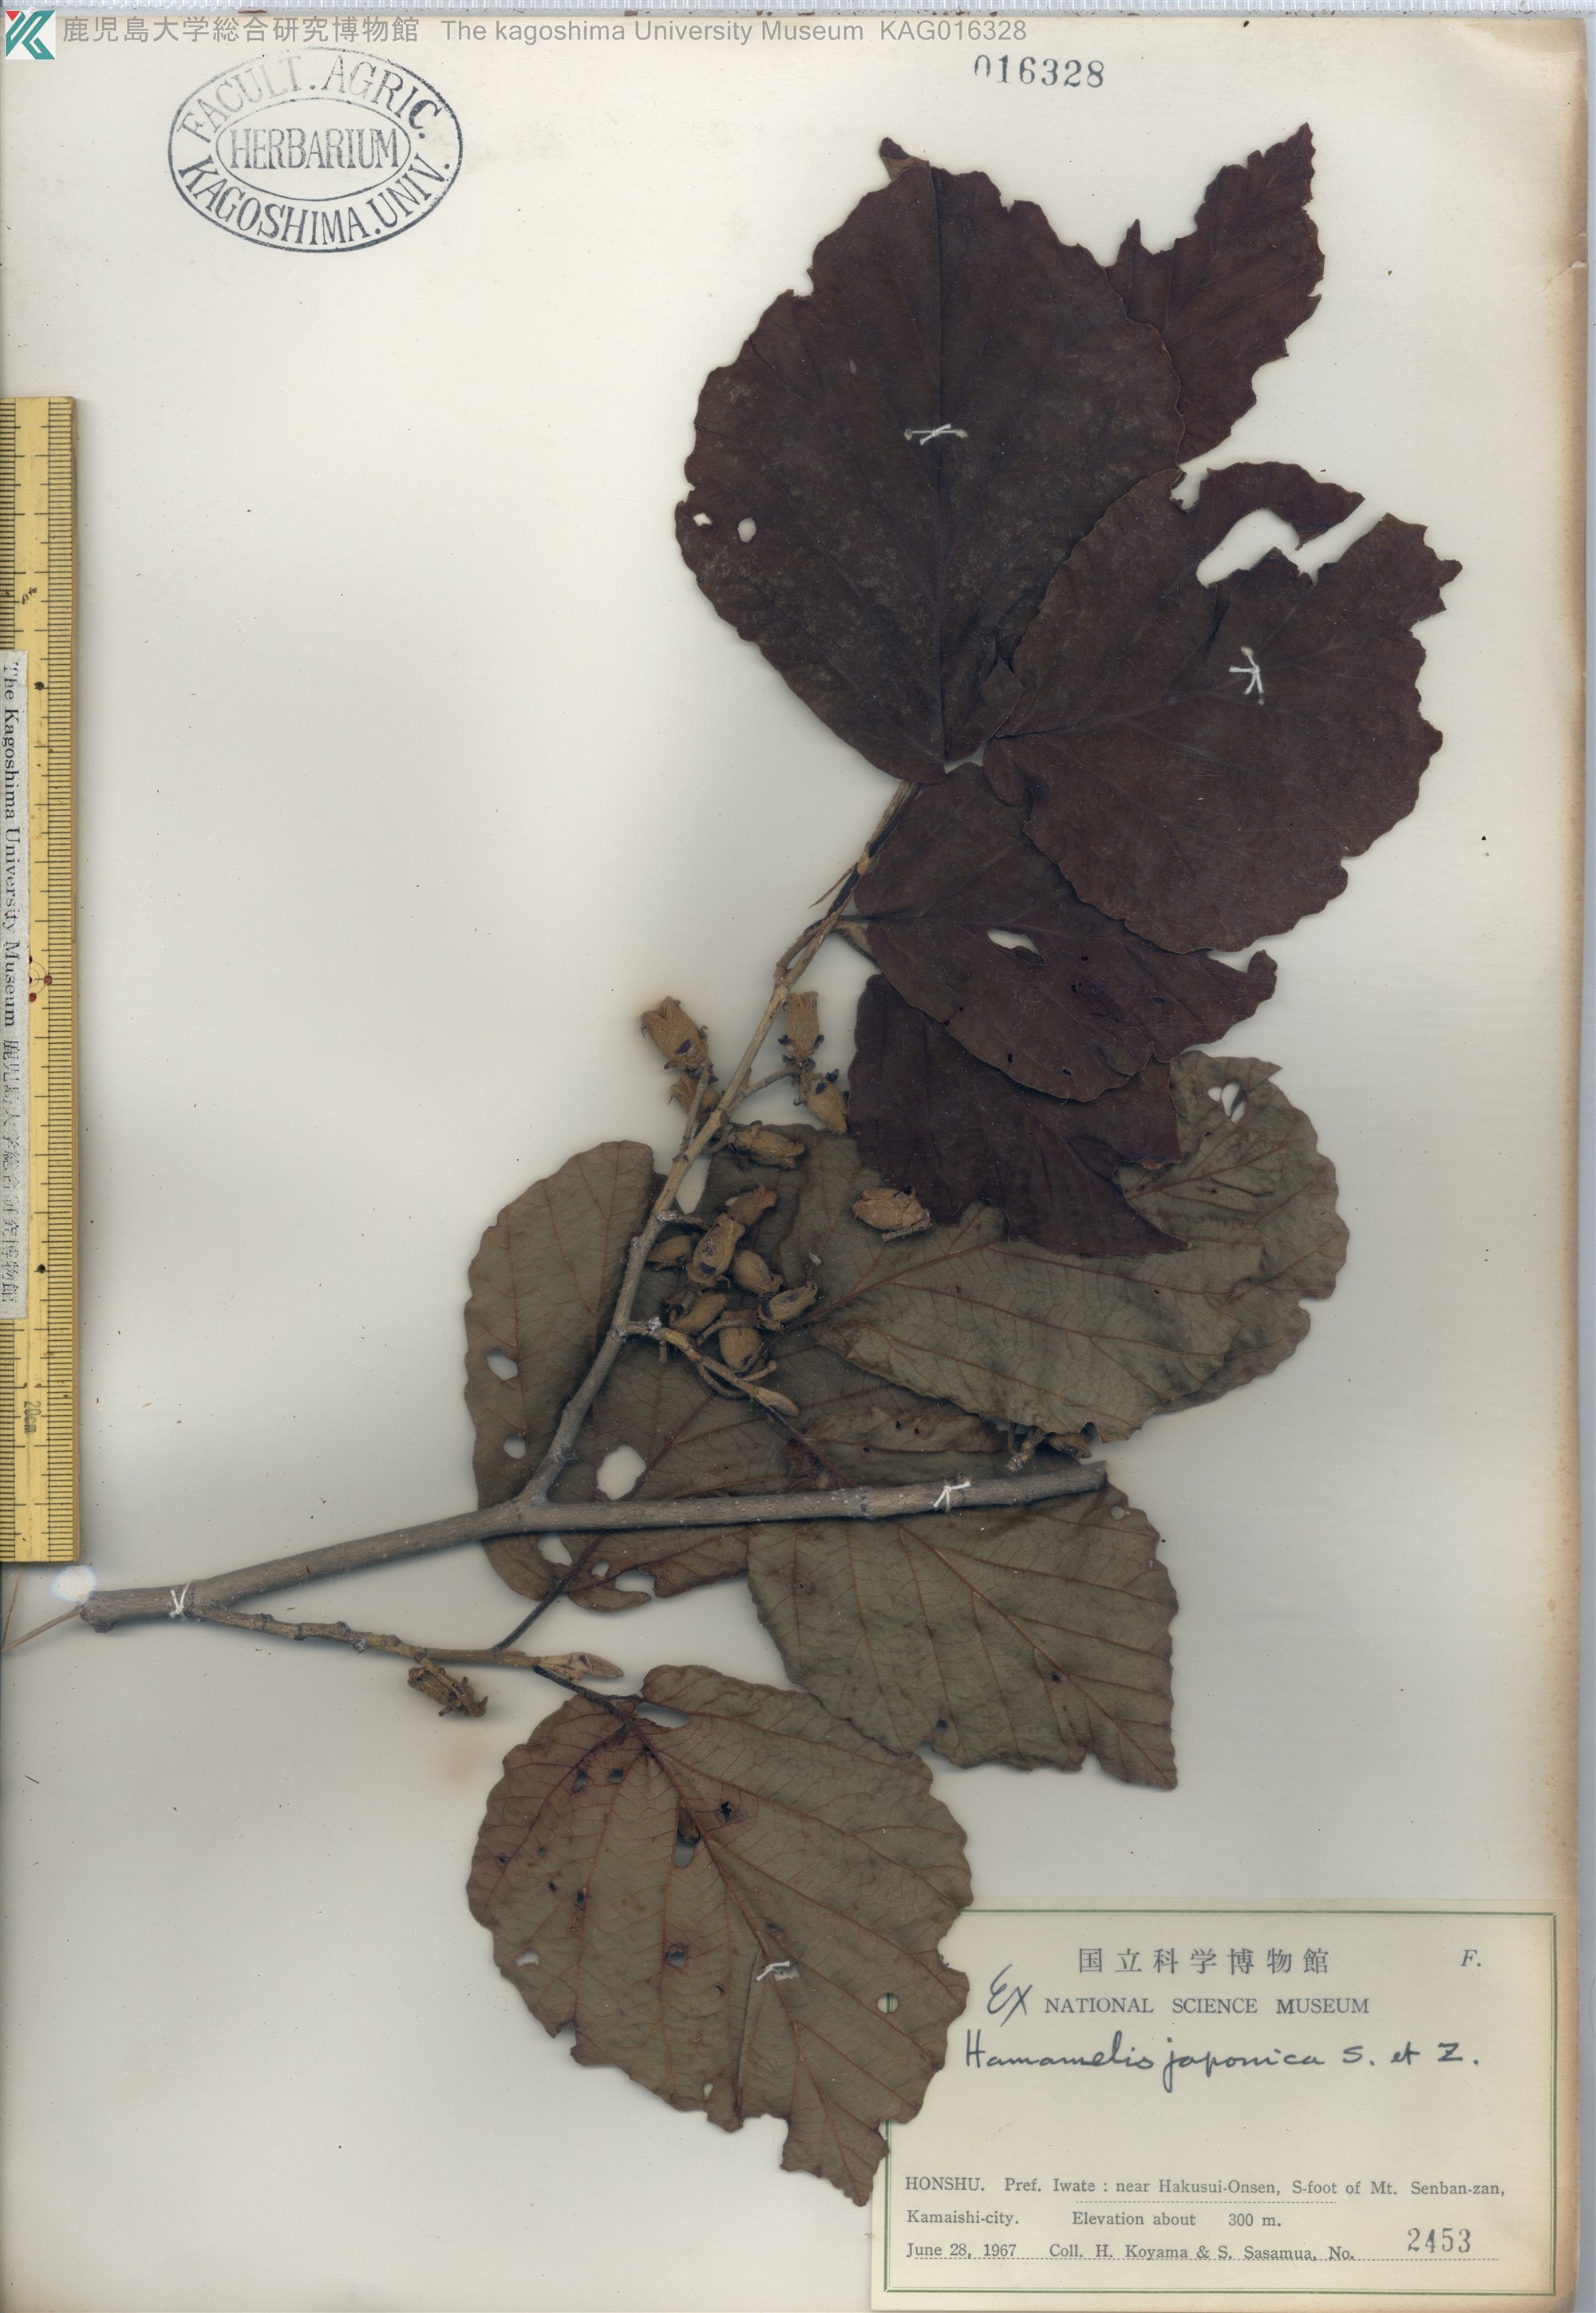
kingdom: Plantae
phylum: Tracheophyta
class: Magnoliopsida
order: Saxifragales
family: Hamamelidaceae
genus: Hamamelis
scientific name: Hamamelis japonica
